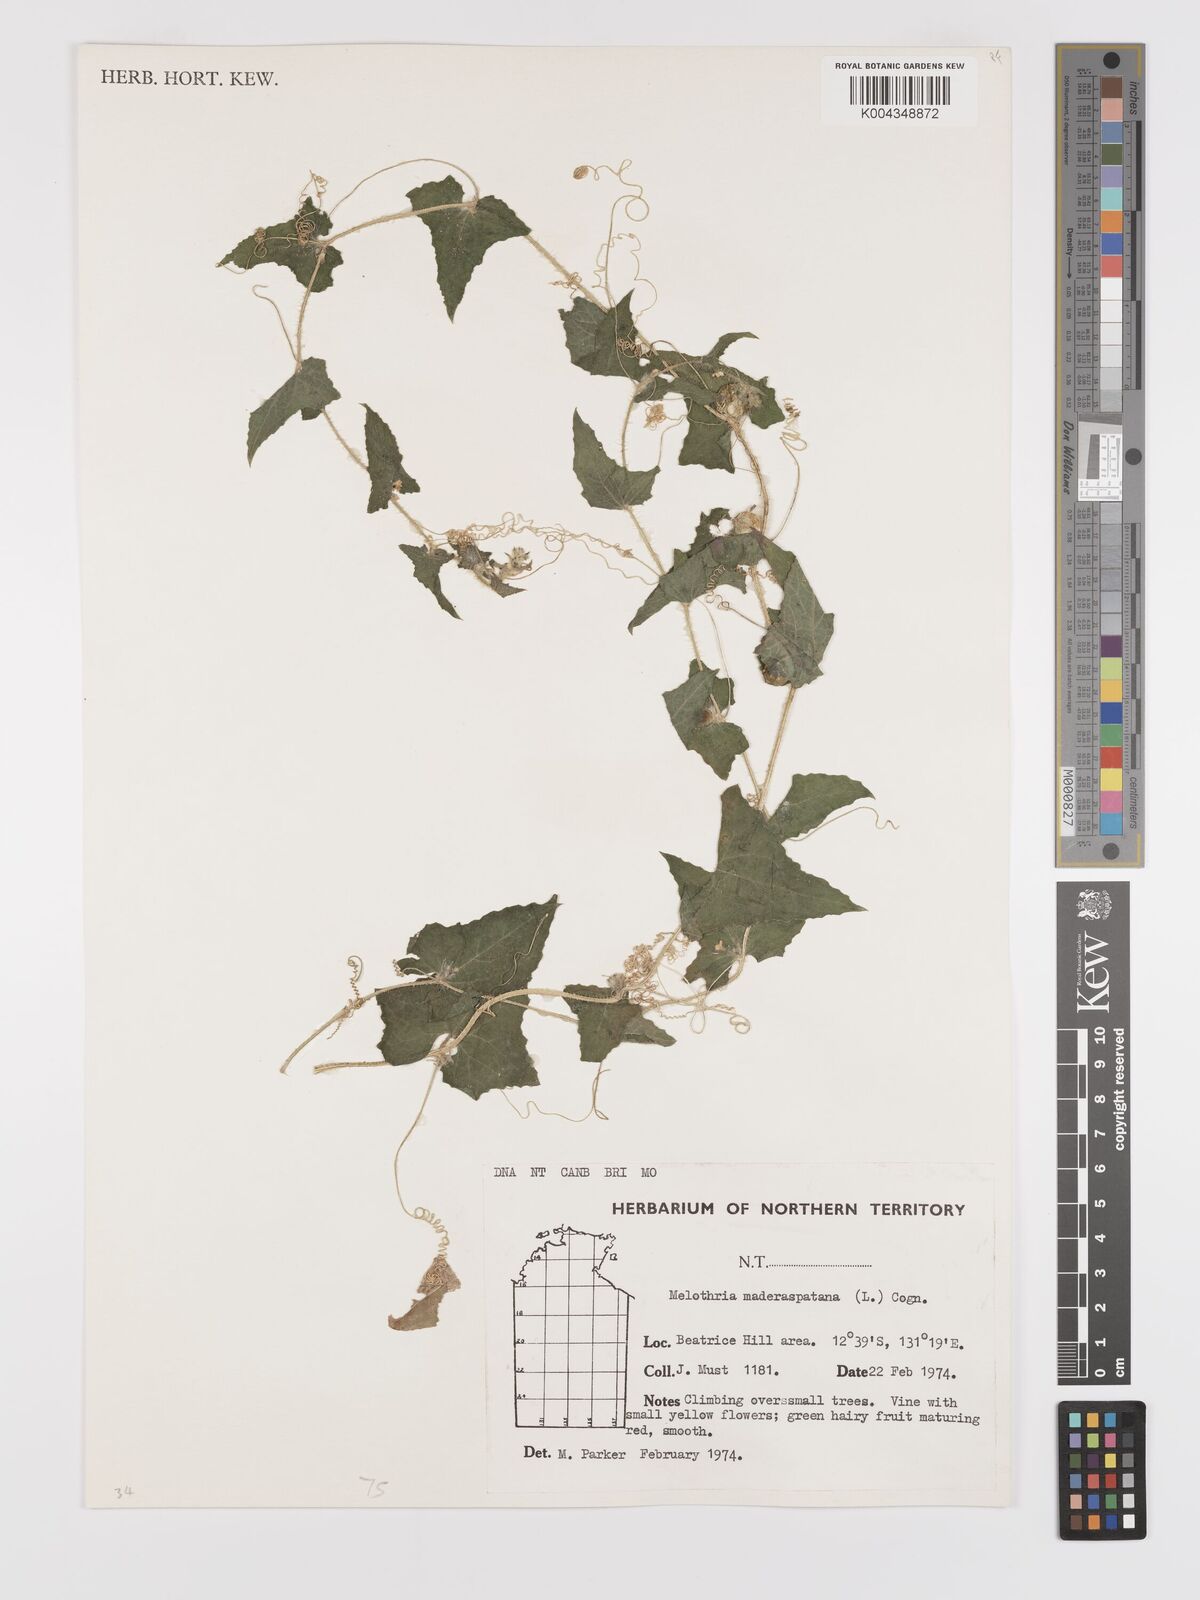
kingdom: Plantae
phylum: Tracheophyta
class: Magnoliopsida
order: Cucurbitales
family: Cucurbitaceae
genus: Cucumis
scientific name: Cucumis maderaspatanus
